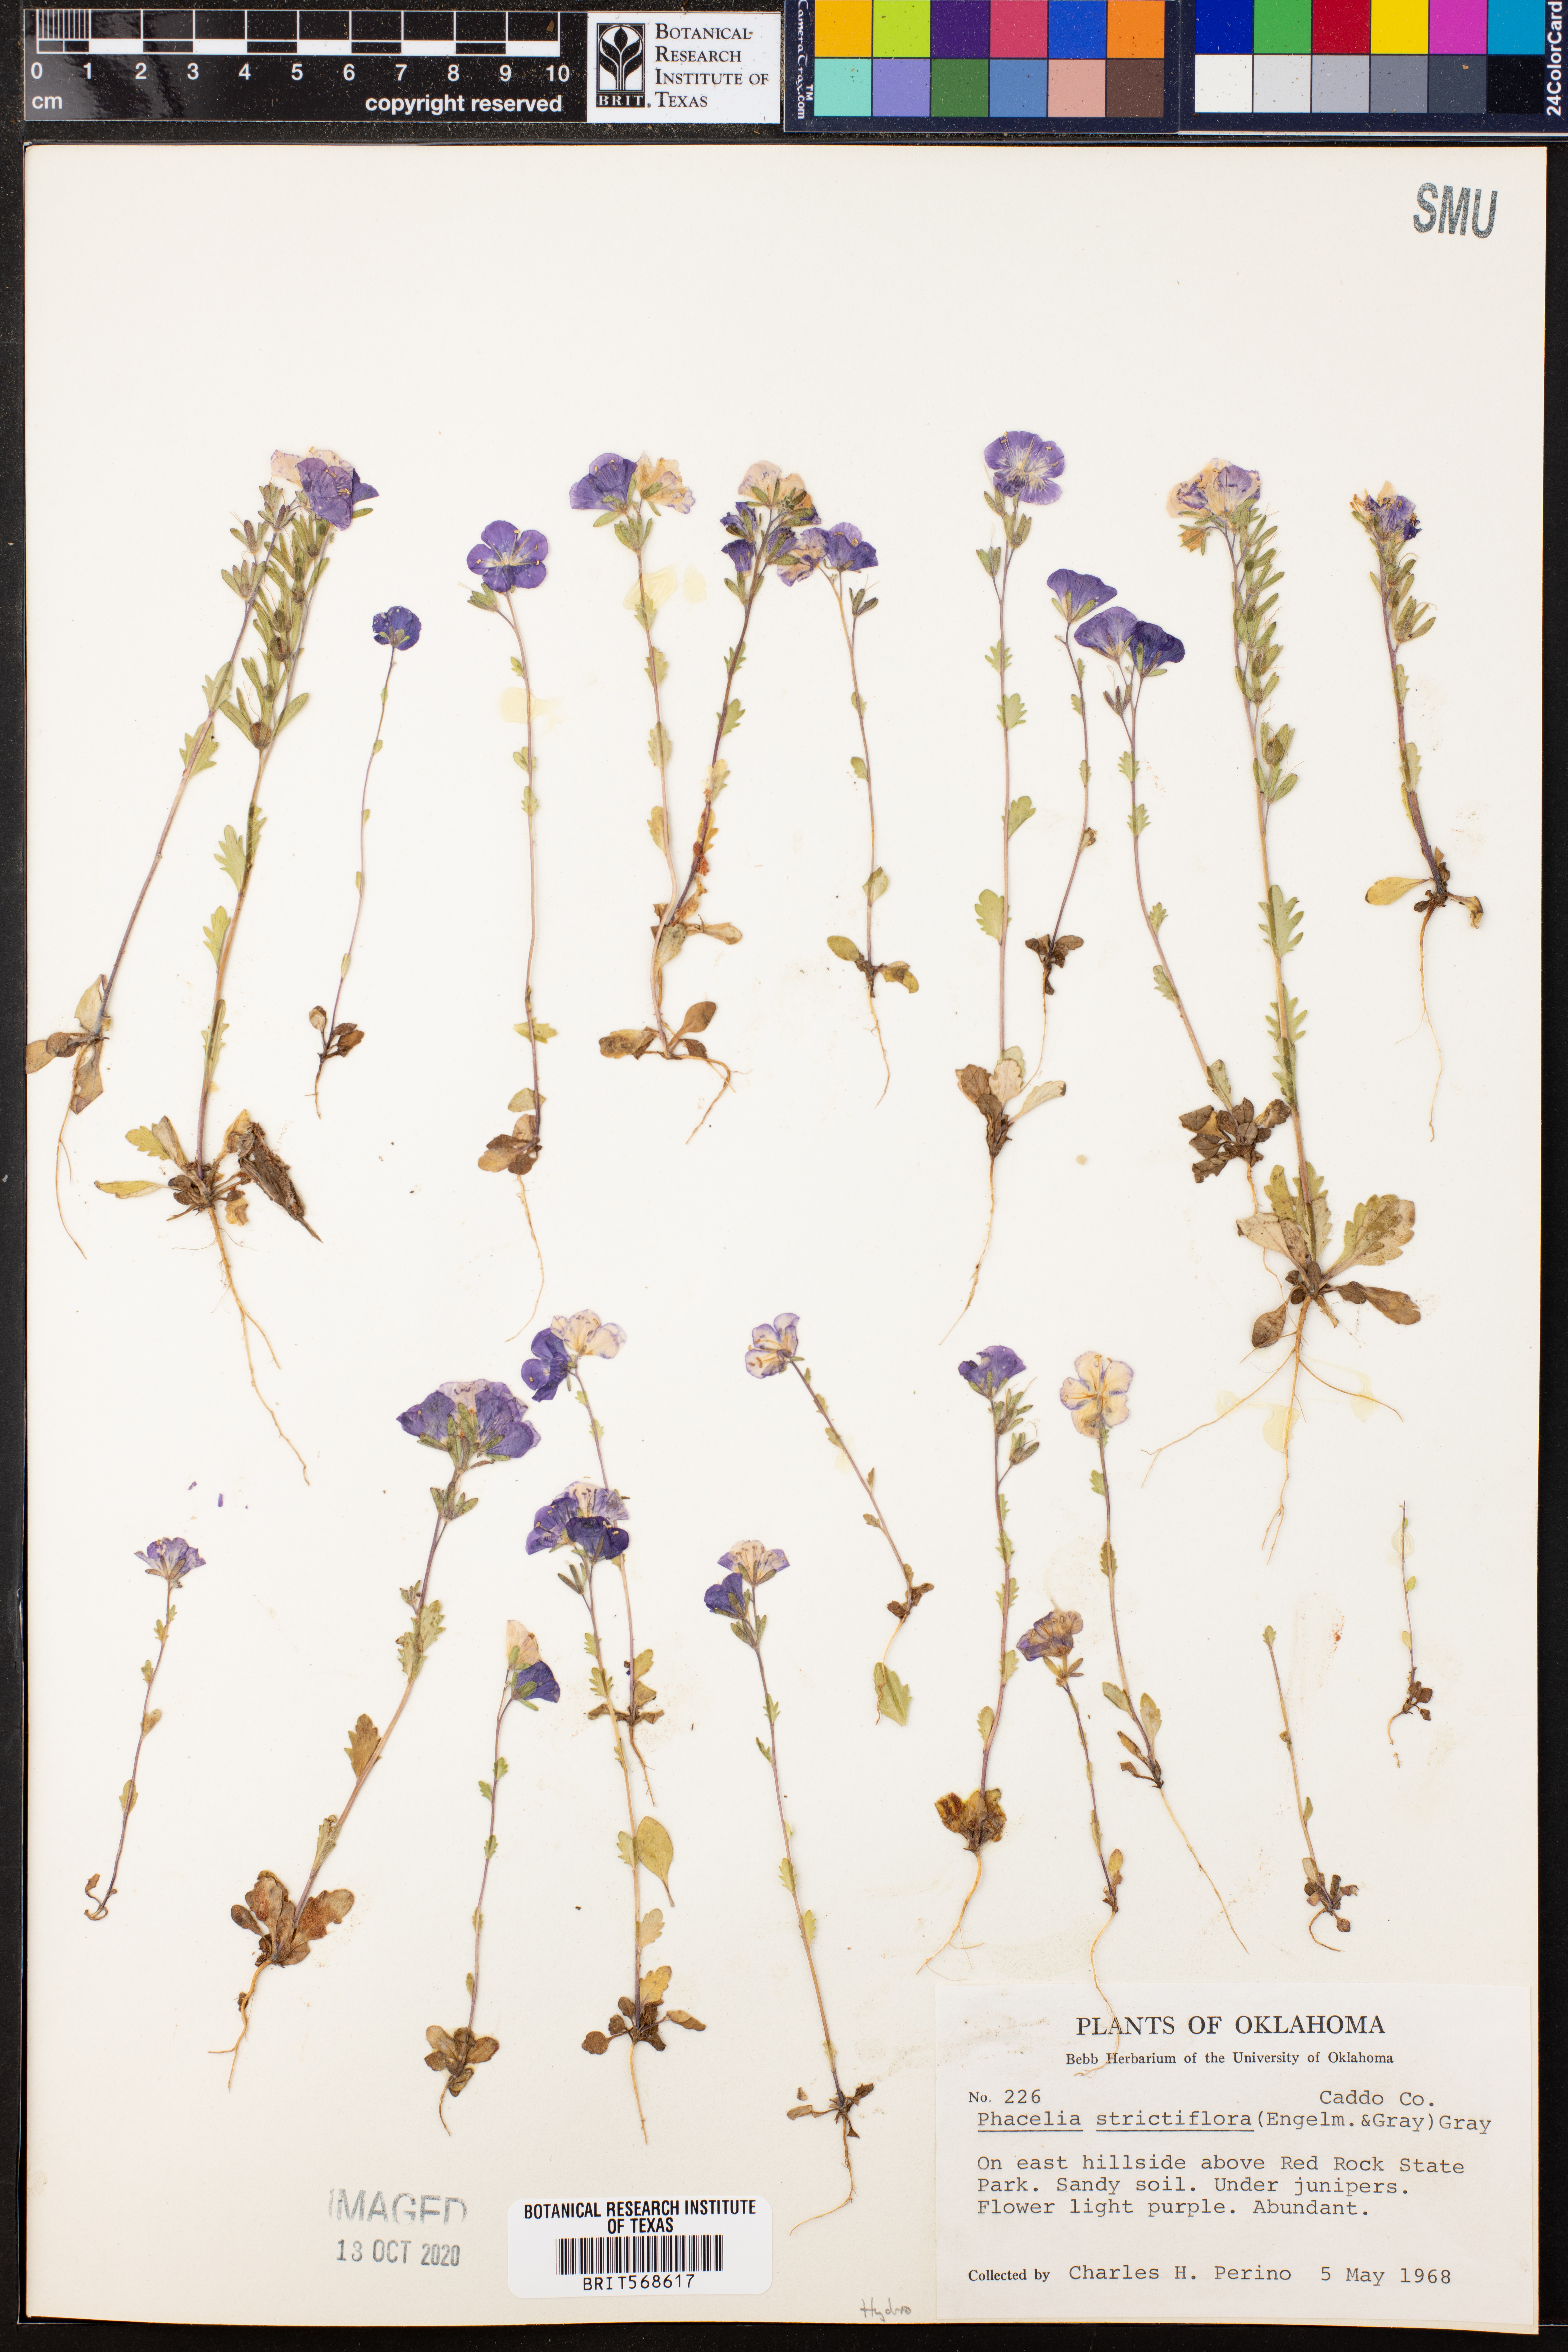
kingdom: Plantae
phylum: Tracheophyta
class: Magnoliopsida
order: Boraginales
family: Hydrophyllaceae
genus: Phacelia
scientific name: Phacelia strictiflora
